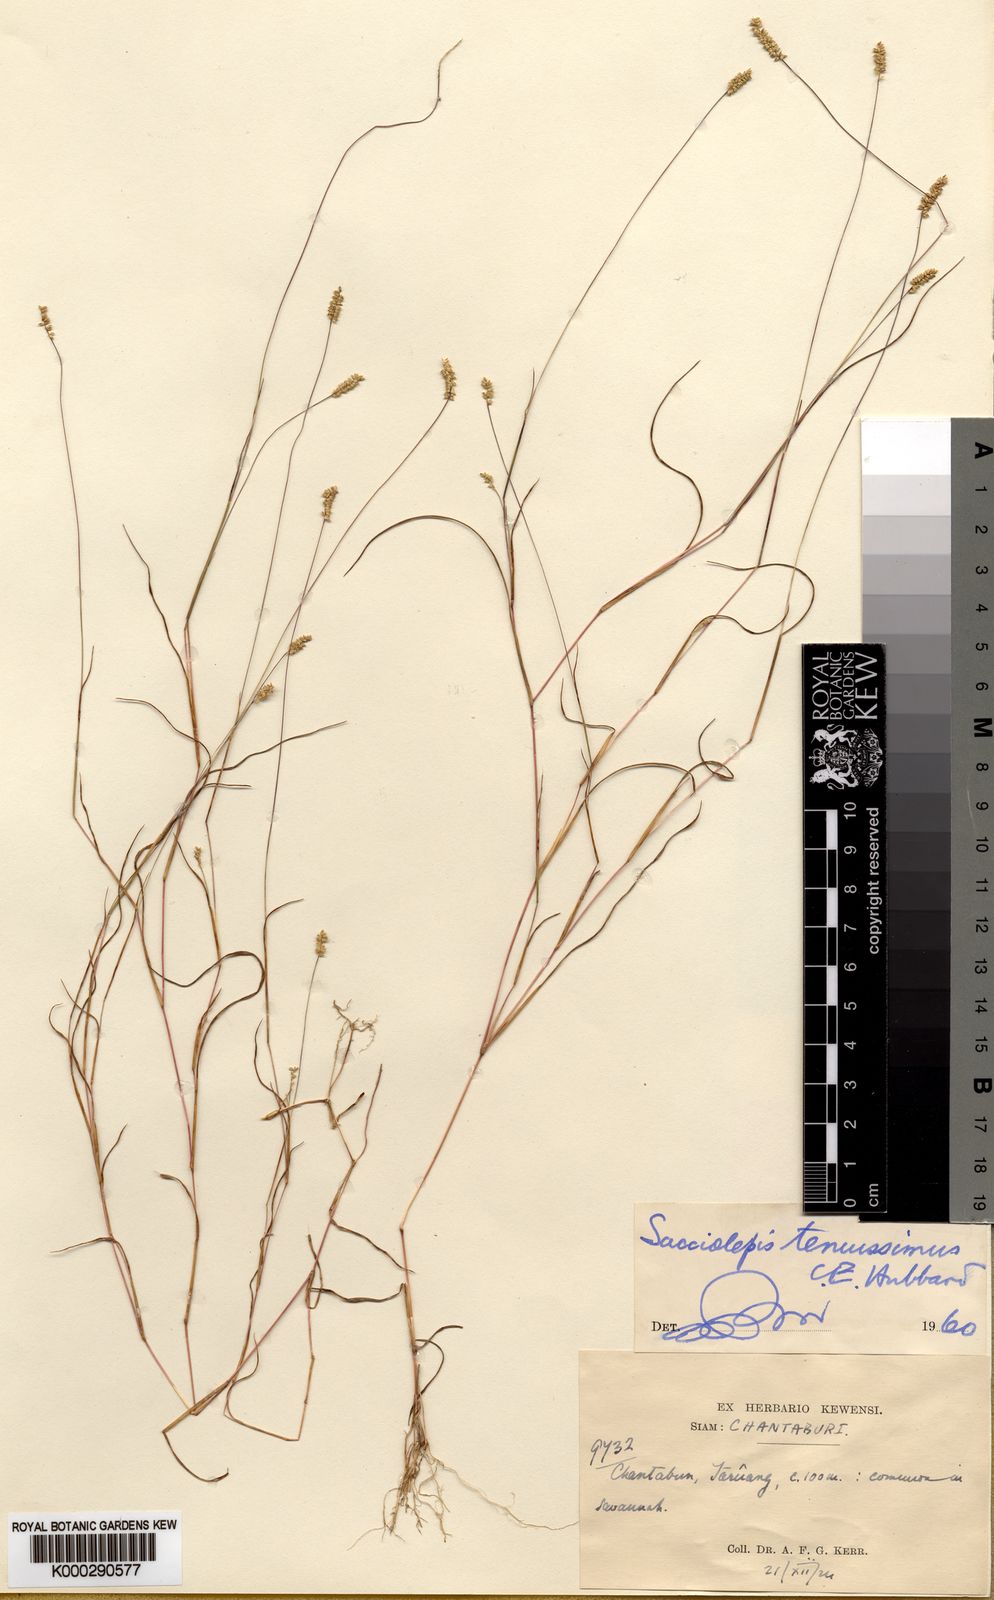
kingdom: Plantae
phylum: Tracheophyta
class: Liliopsida
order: Poales
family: Poaceae
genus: Sacciolepis
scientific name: Sacciolepis tenuissima
